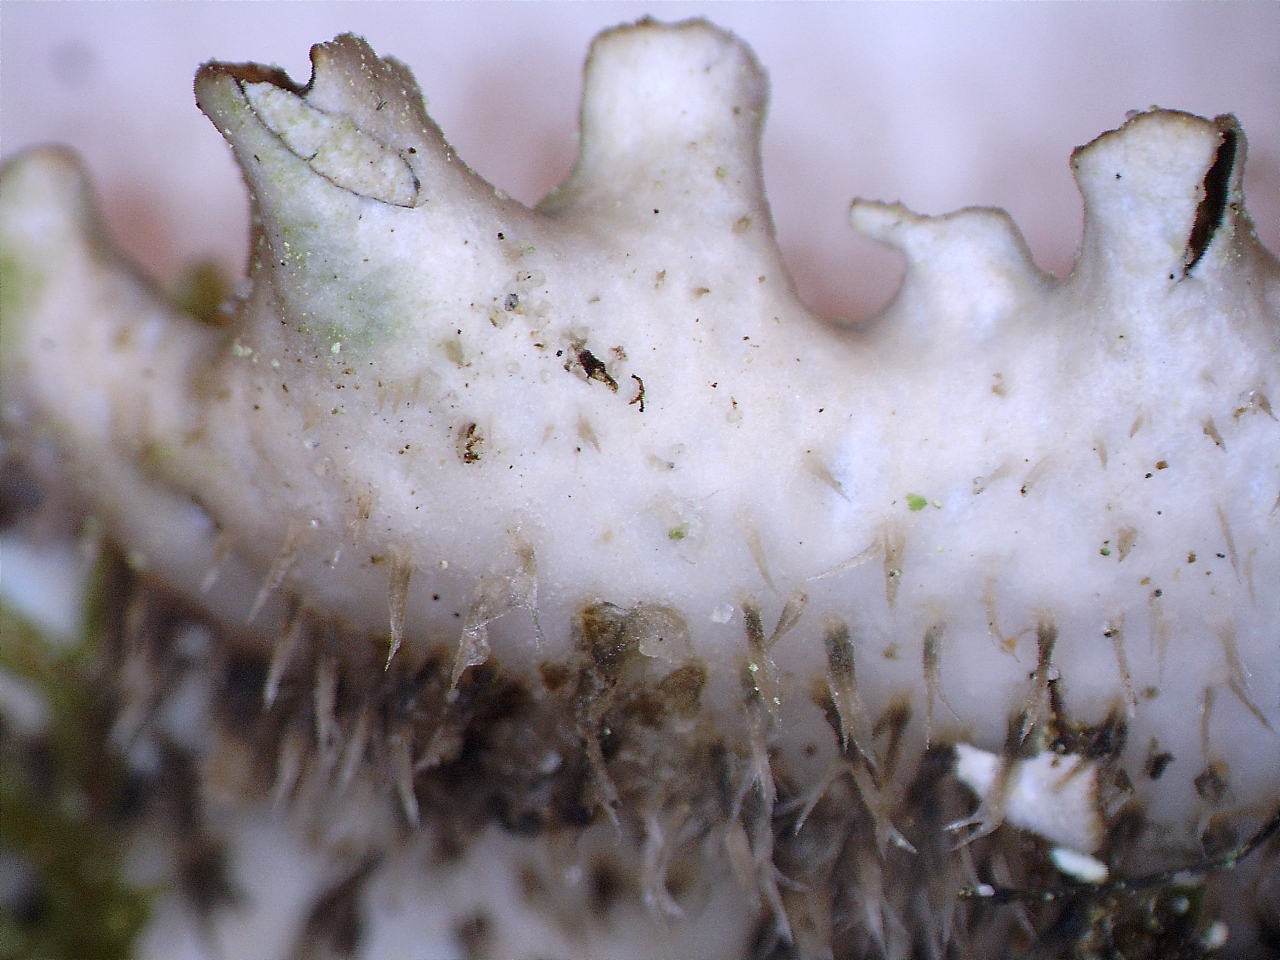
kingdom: Fungi
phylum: Ascomycota
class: Lecanoromycetes
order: Peltigerales
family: Peltigeraceae
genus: Peltigera
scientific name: Peltigera hymenina
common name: hinde-skjoldlav
